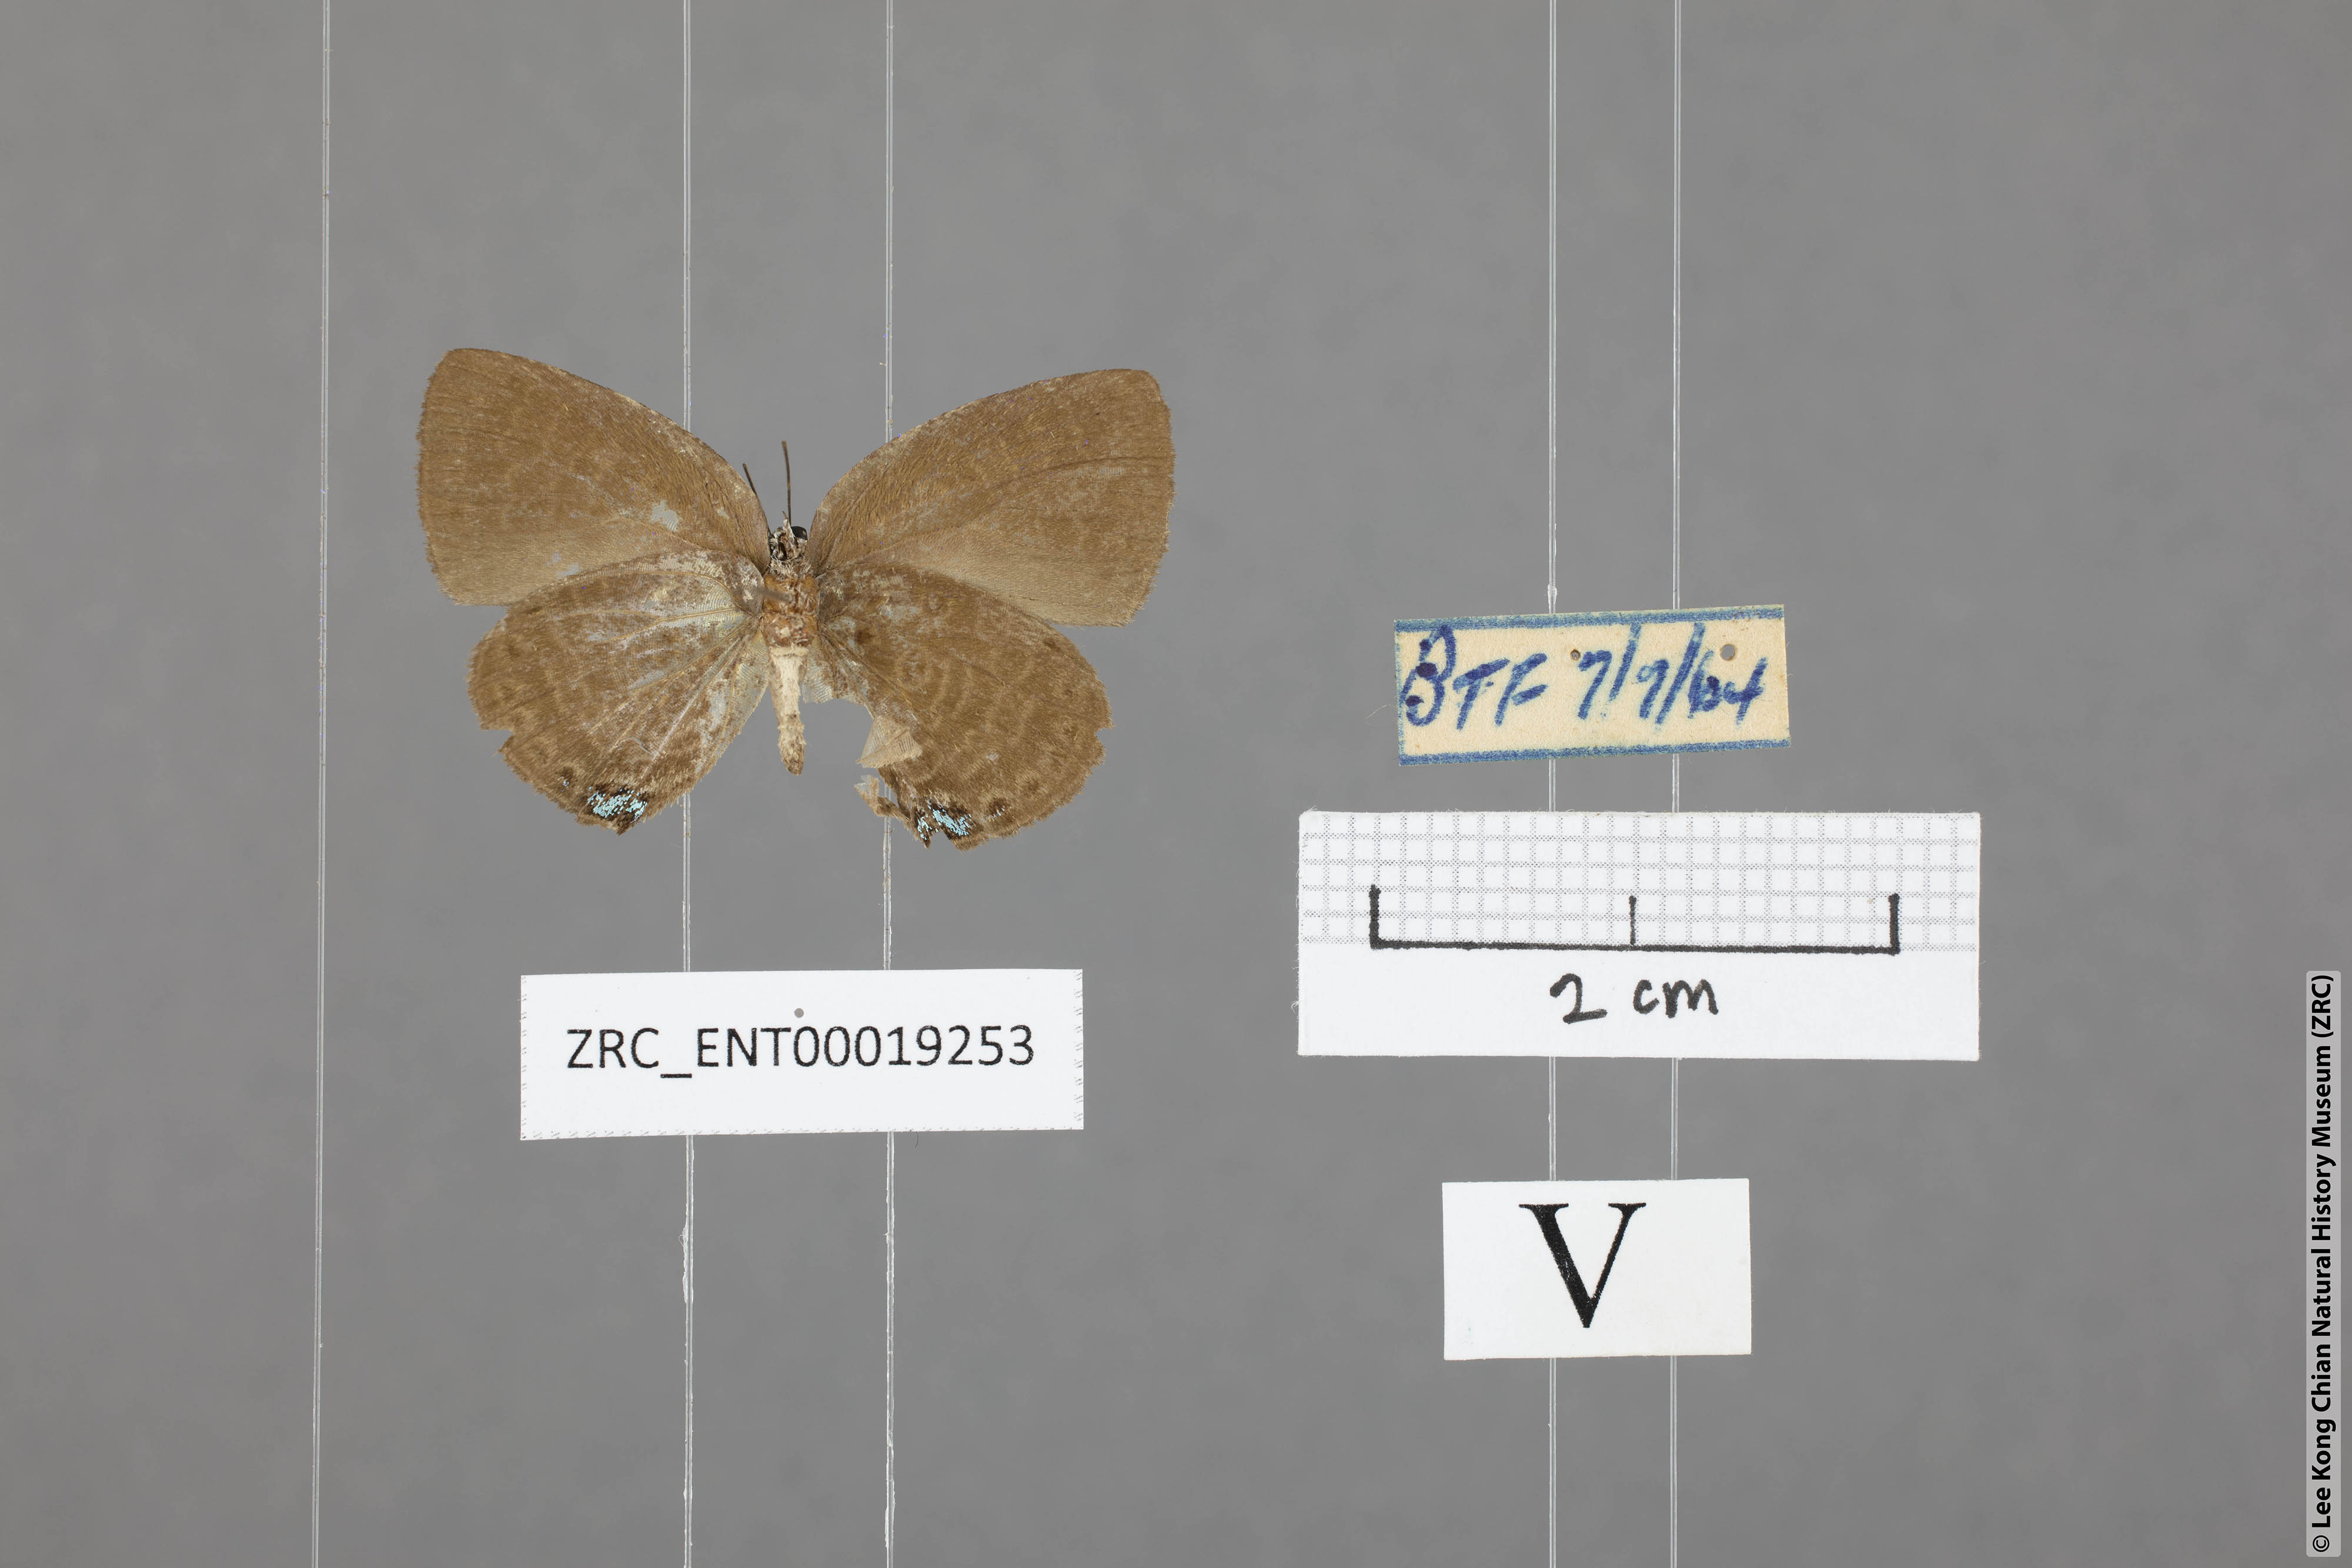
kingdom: Animalia
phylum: Arthropoda
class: Insecta
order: Lepidoptera
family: Lycaenidae
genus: Arhopala
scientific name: Arhopala avathina
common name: Lunulate yellow oakblue
